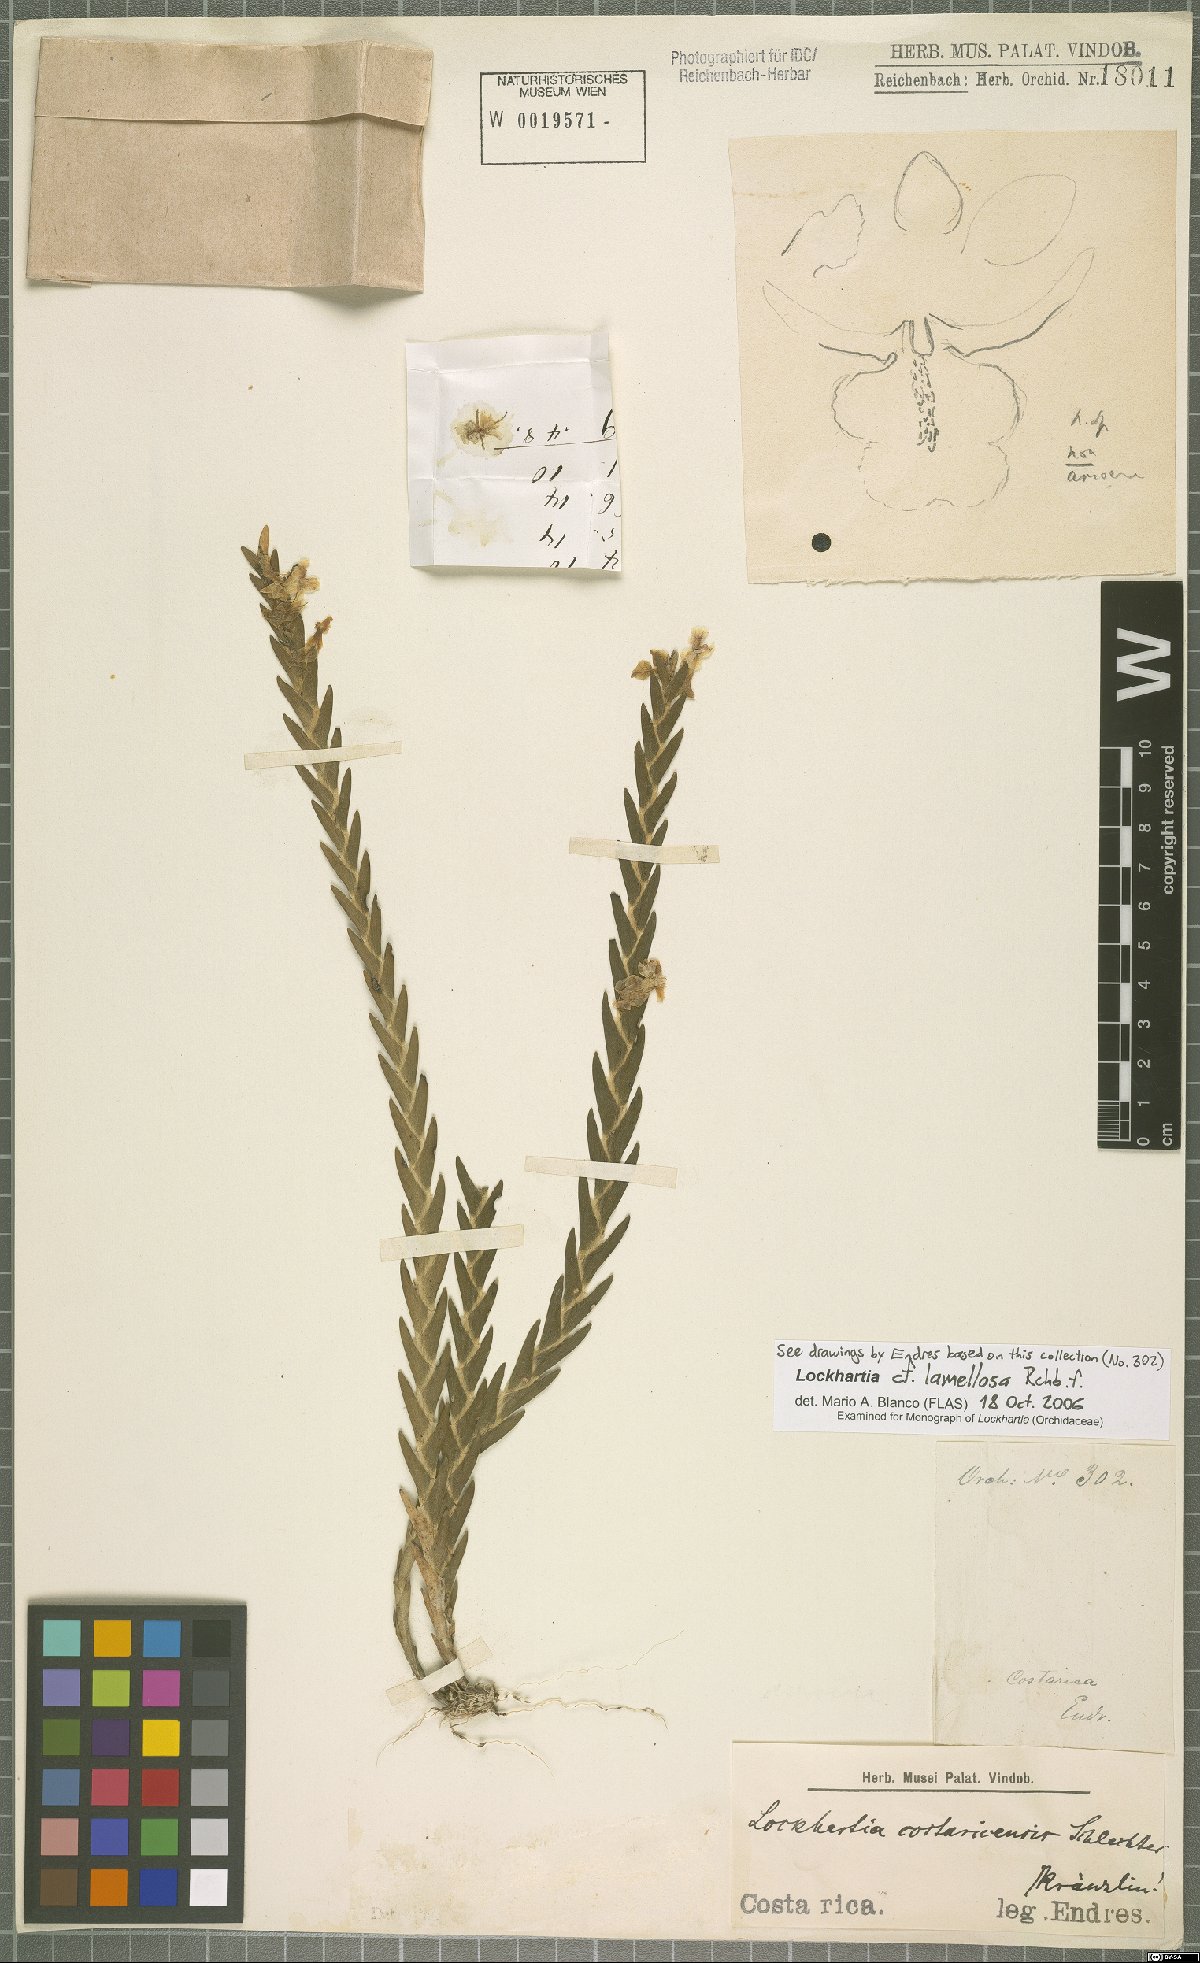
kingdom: Plantae
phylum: Tracheophyta
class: Liliopsida
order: Asparagales
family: Orchidaceae
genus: Lockhartia
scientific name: Lockhartia oerstedii
